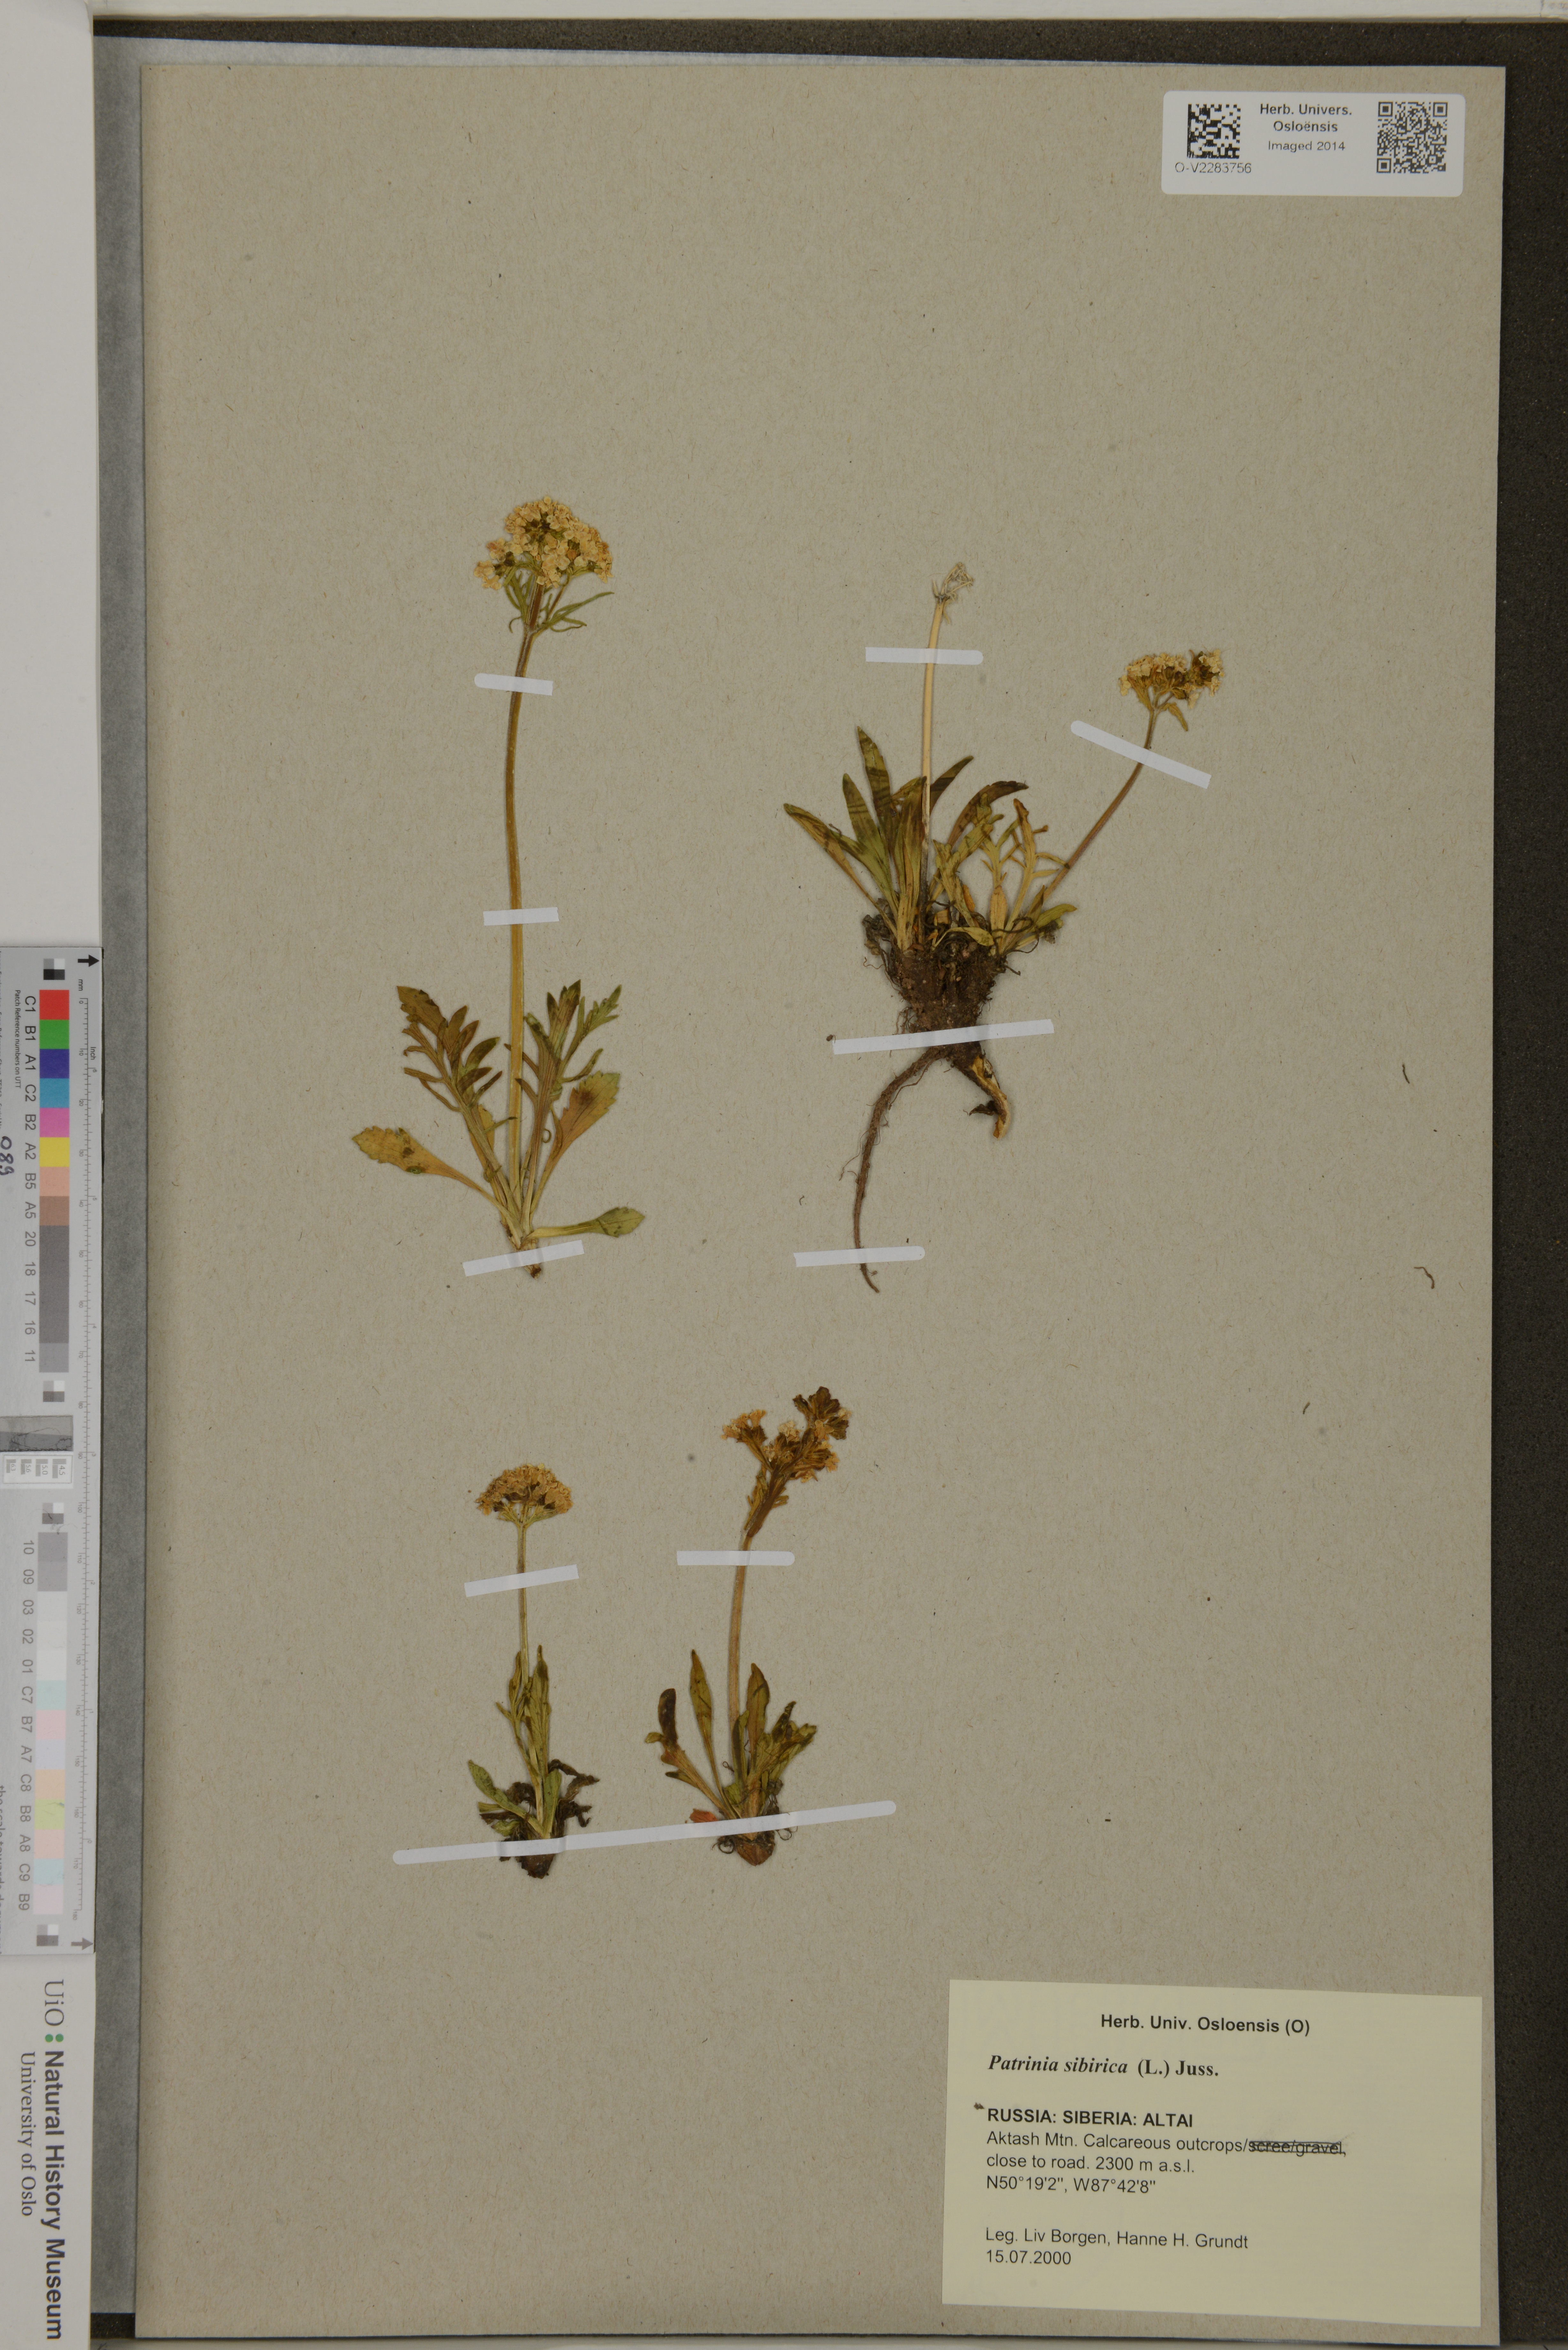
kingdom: Plantae
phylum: Tracheophyta
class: Magnoliopsida
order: Dipsacales
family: Caprifoliaceae
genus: Patrinia
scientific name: Patrinia sibirica
